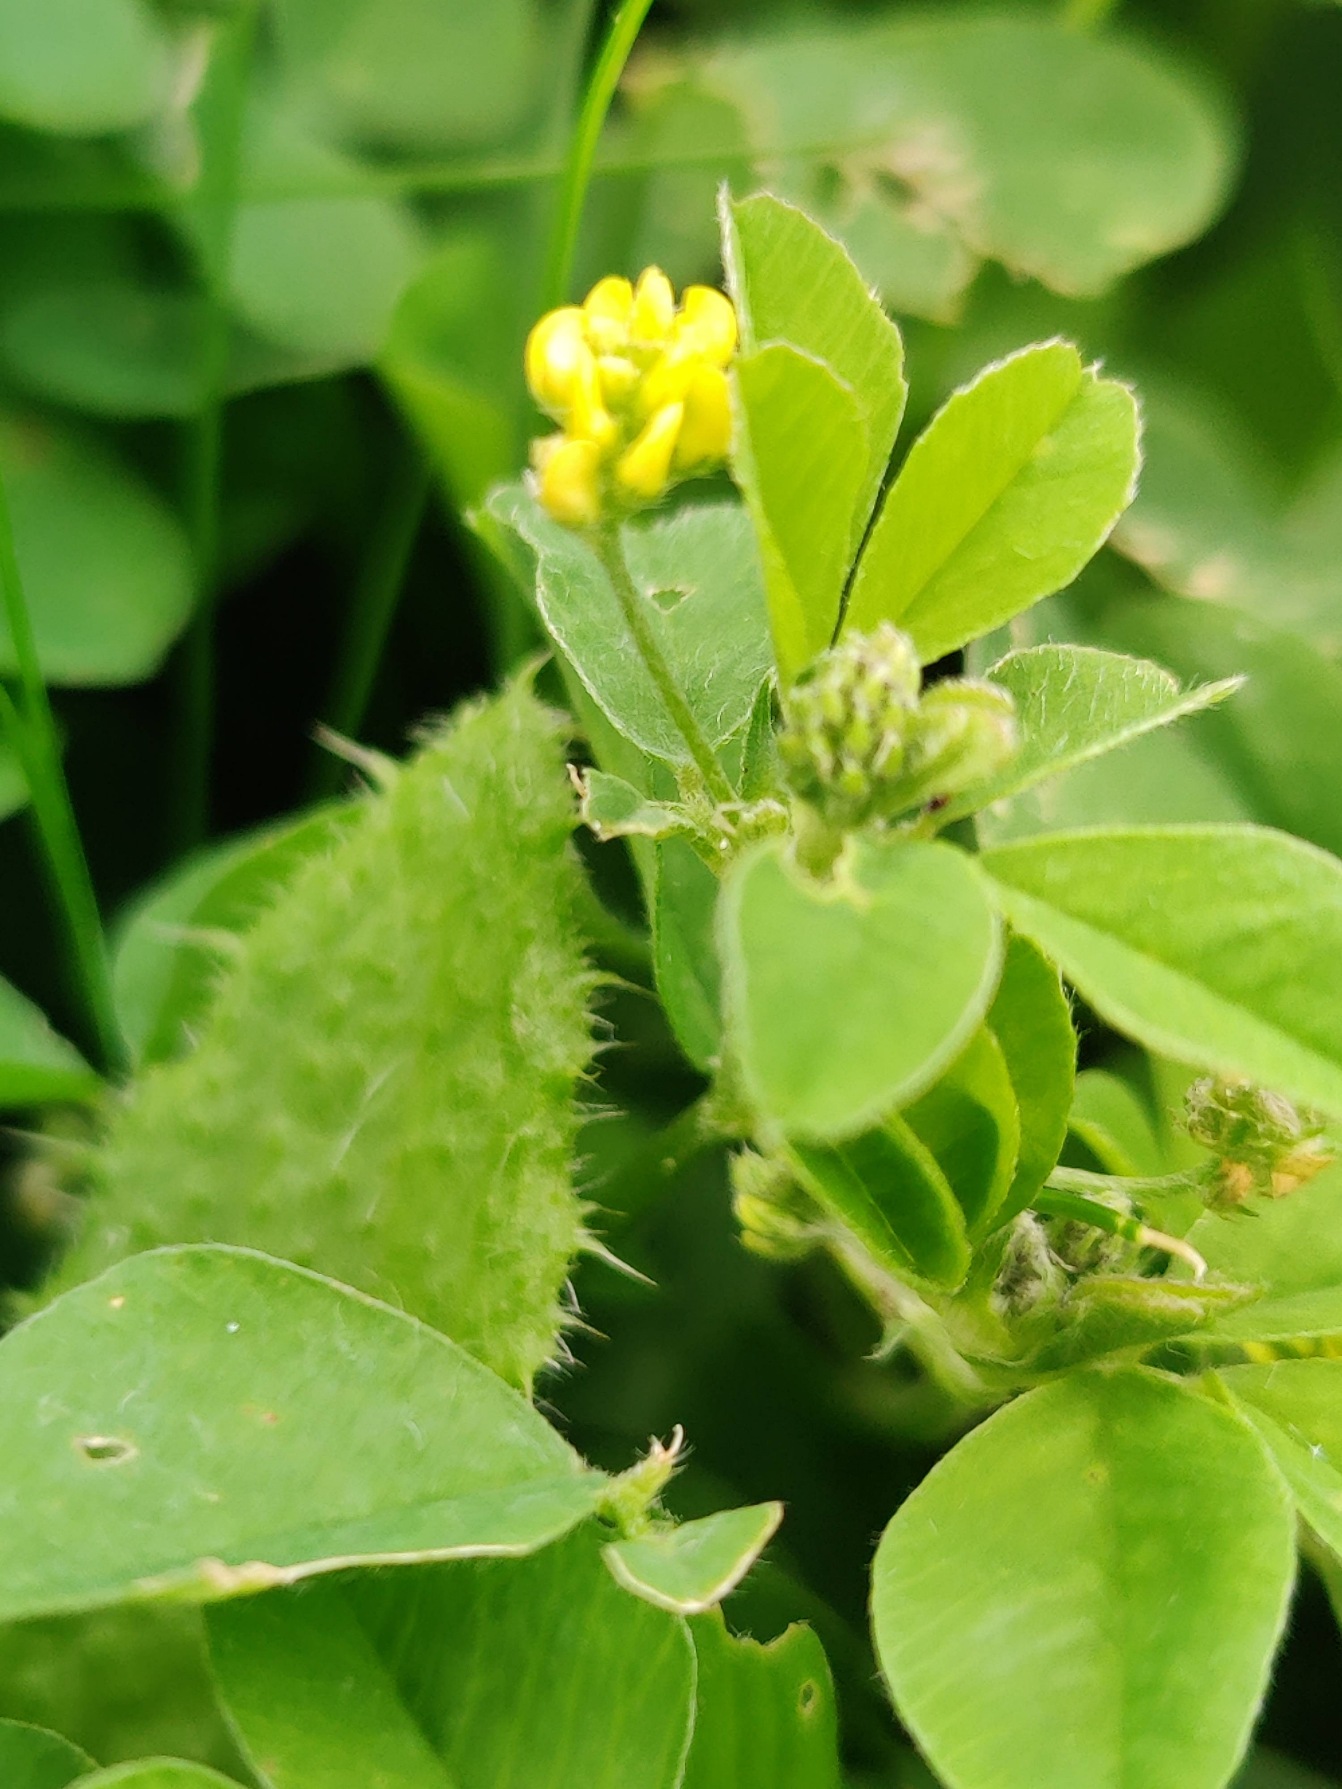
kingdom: Plantae
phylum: Tracheophyta
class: Magnoliopsida
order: Fabales
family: Fabaceae
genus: Medicago
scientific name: Medicago lupulina
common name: Humle-sneglebælg
